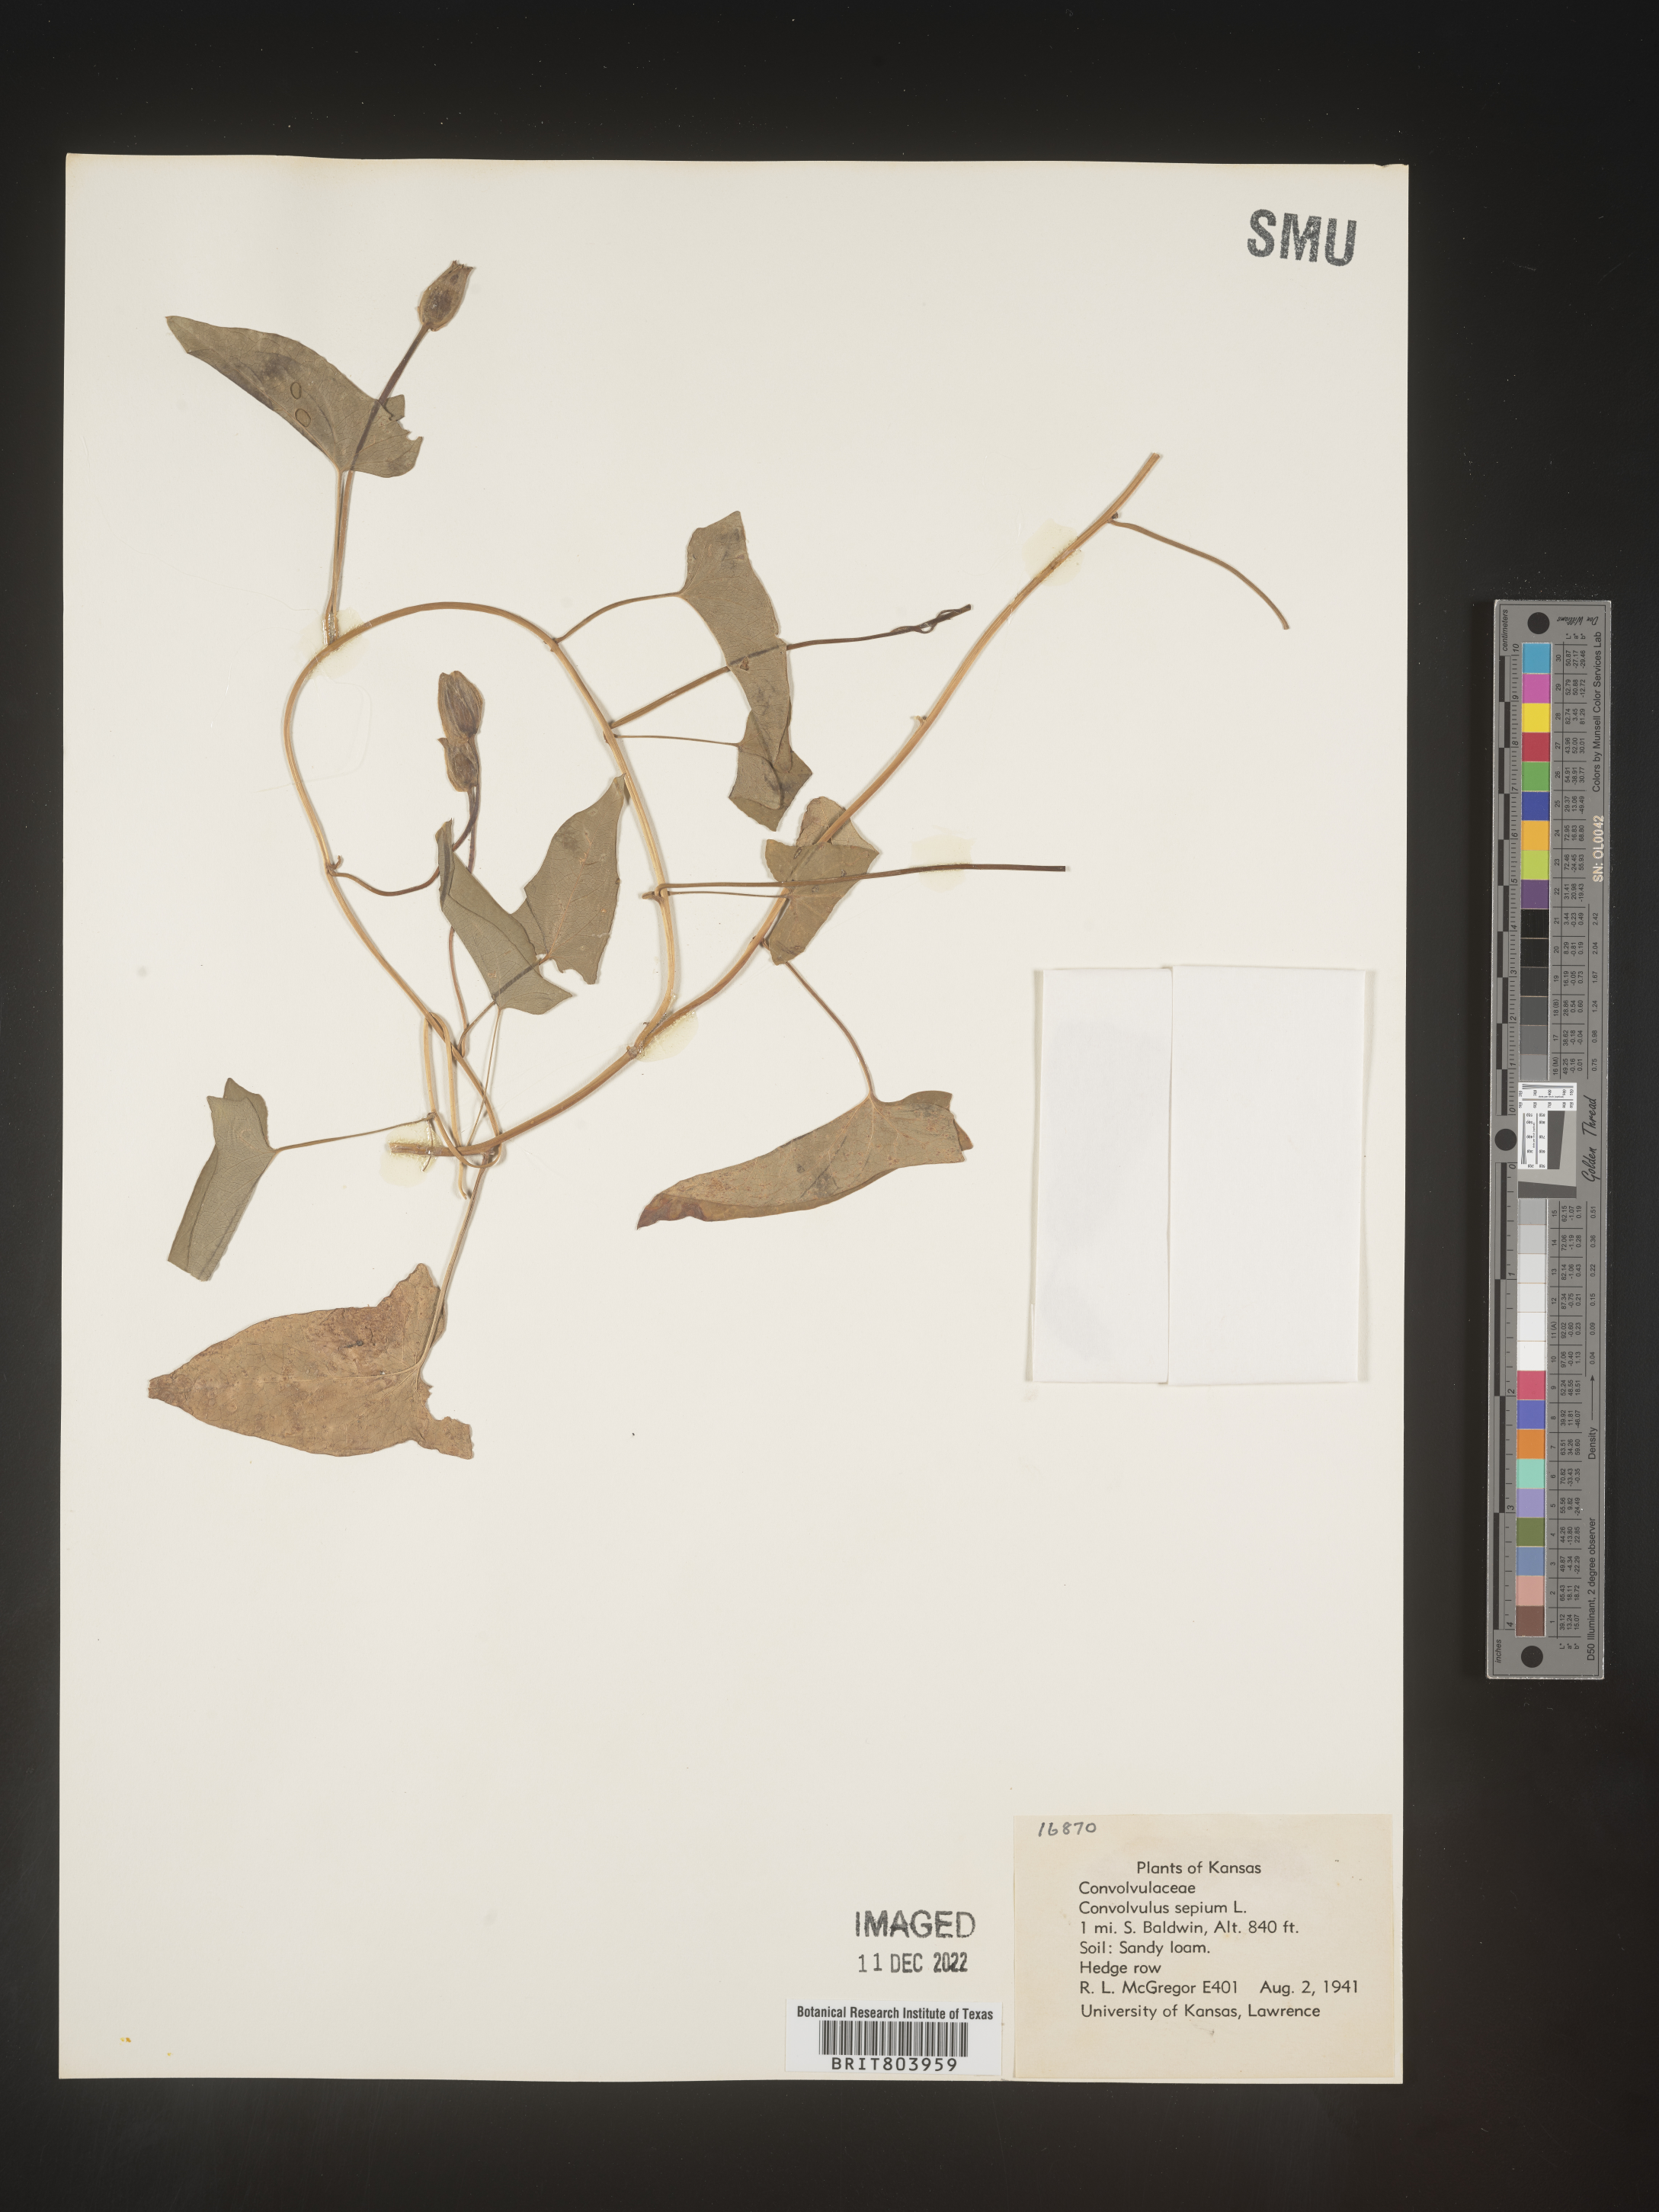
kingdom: Plantae
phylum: Tracheophyta
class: Magnoliopsida
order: Solanales
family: Convolvulaceae
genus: Calystegia
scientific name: Calystegia sepium
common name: Hedge bindweed
